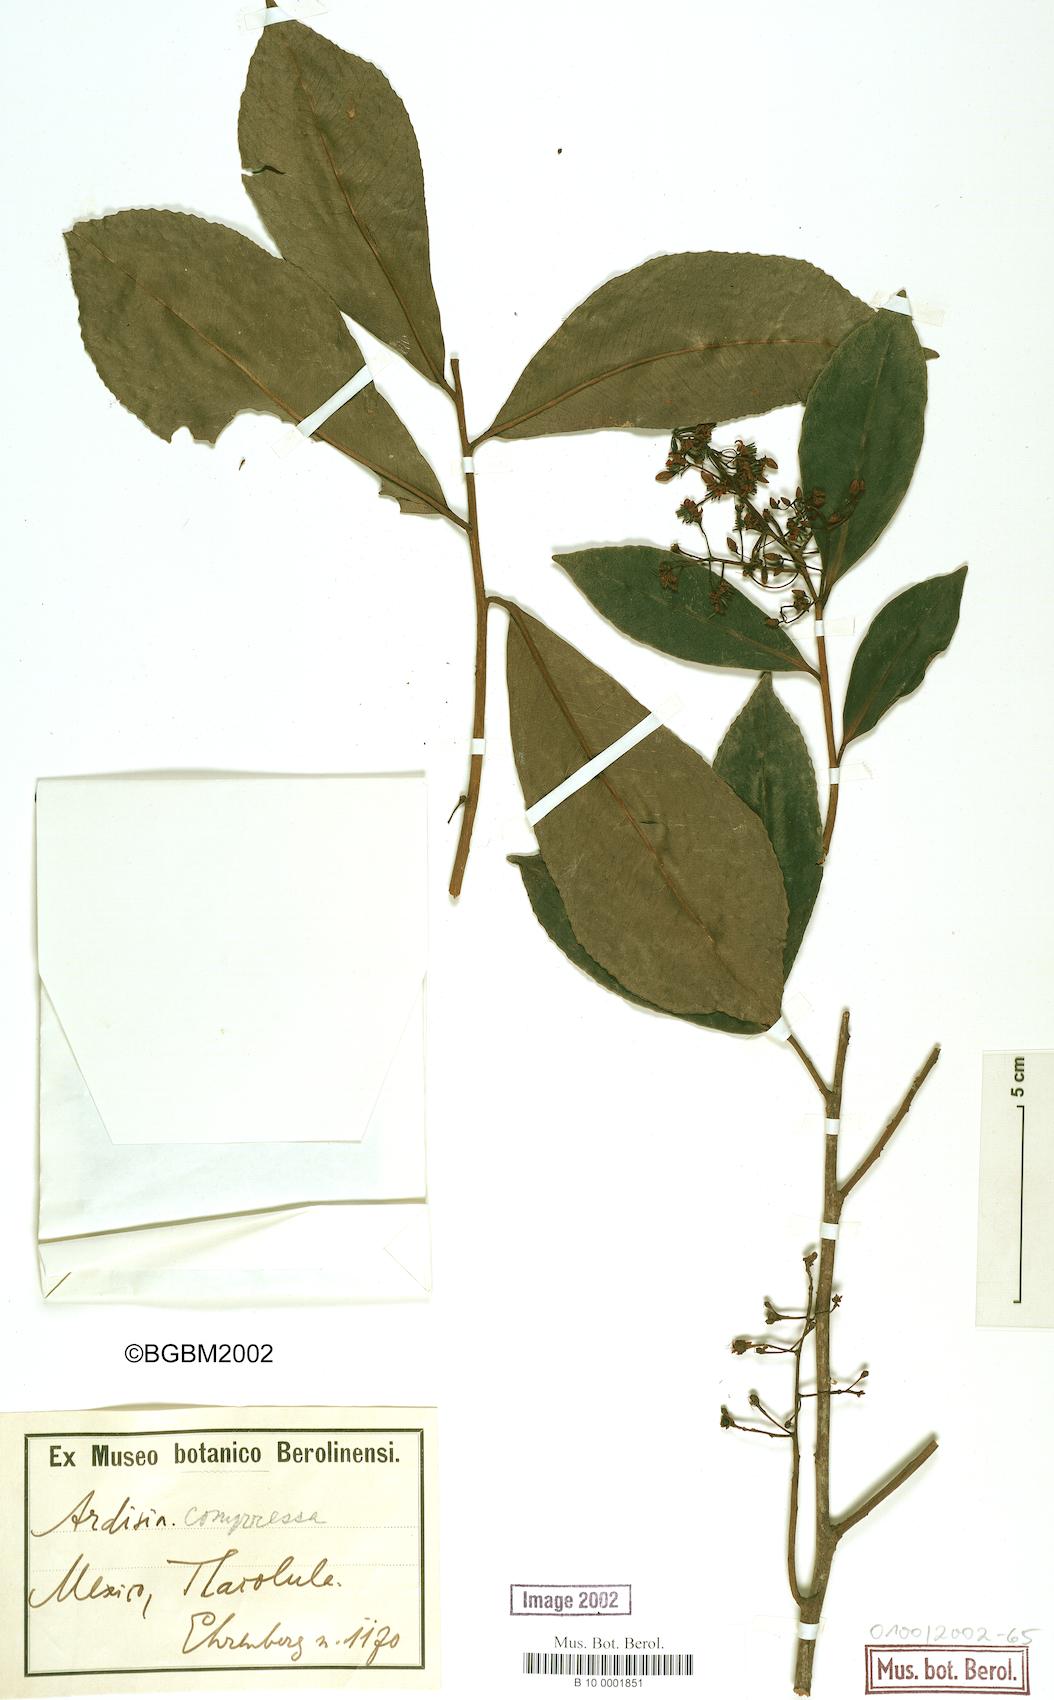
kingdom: Plantae
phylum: Tracheophyta
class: Magnoliopsida
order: Ericales
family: Primulaceae
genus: Ardisia
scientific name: Ardisia compressa
